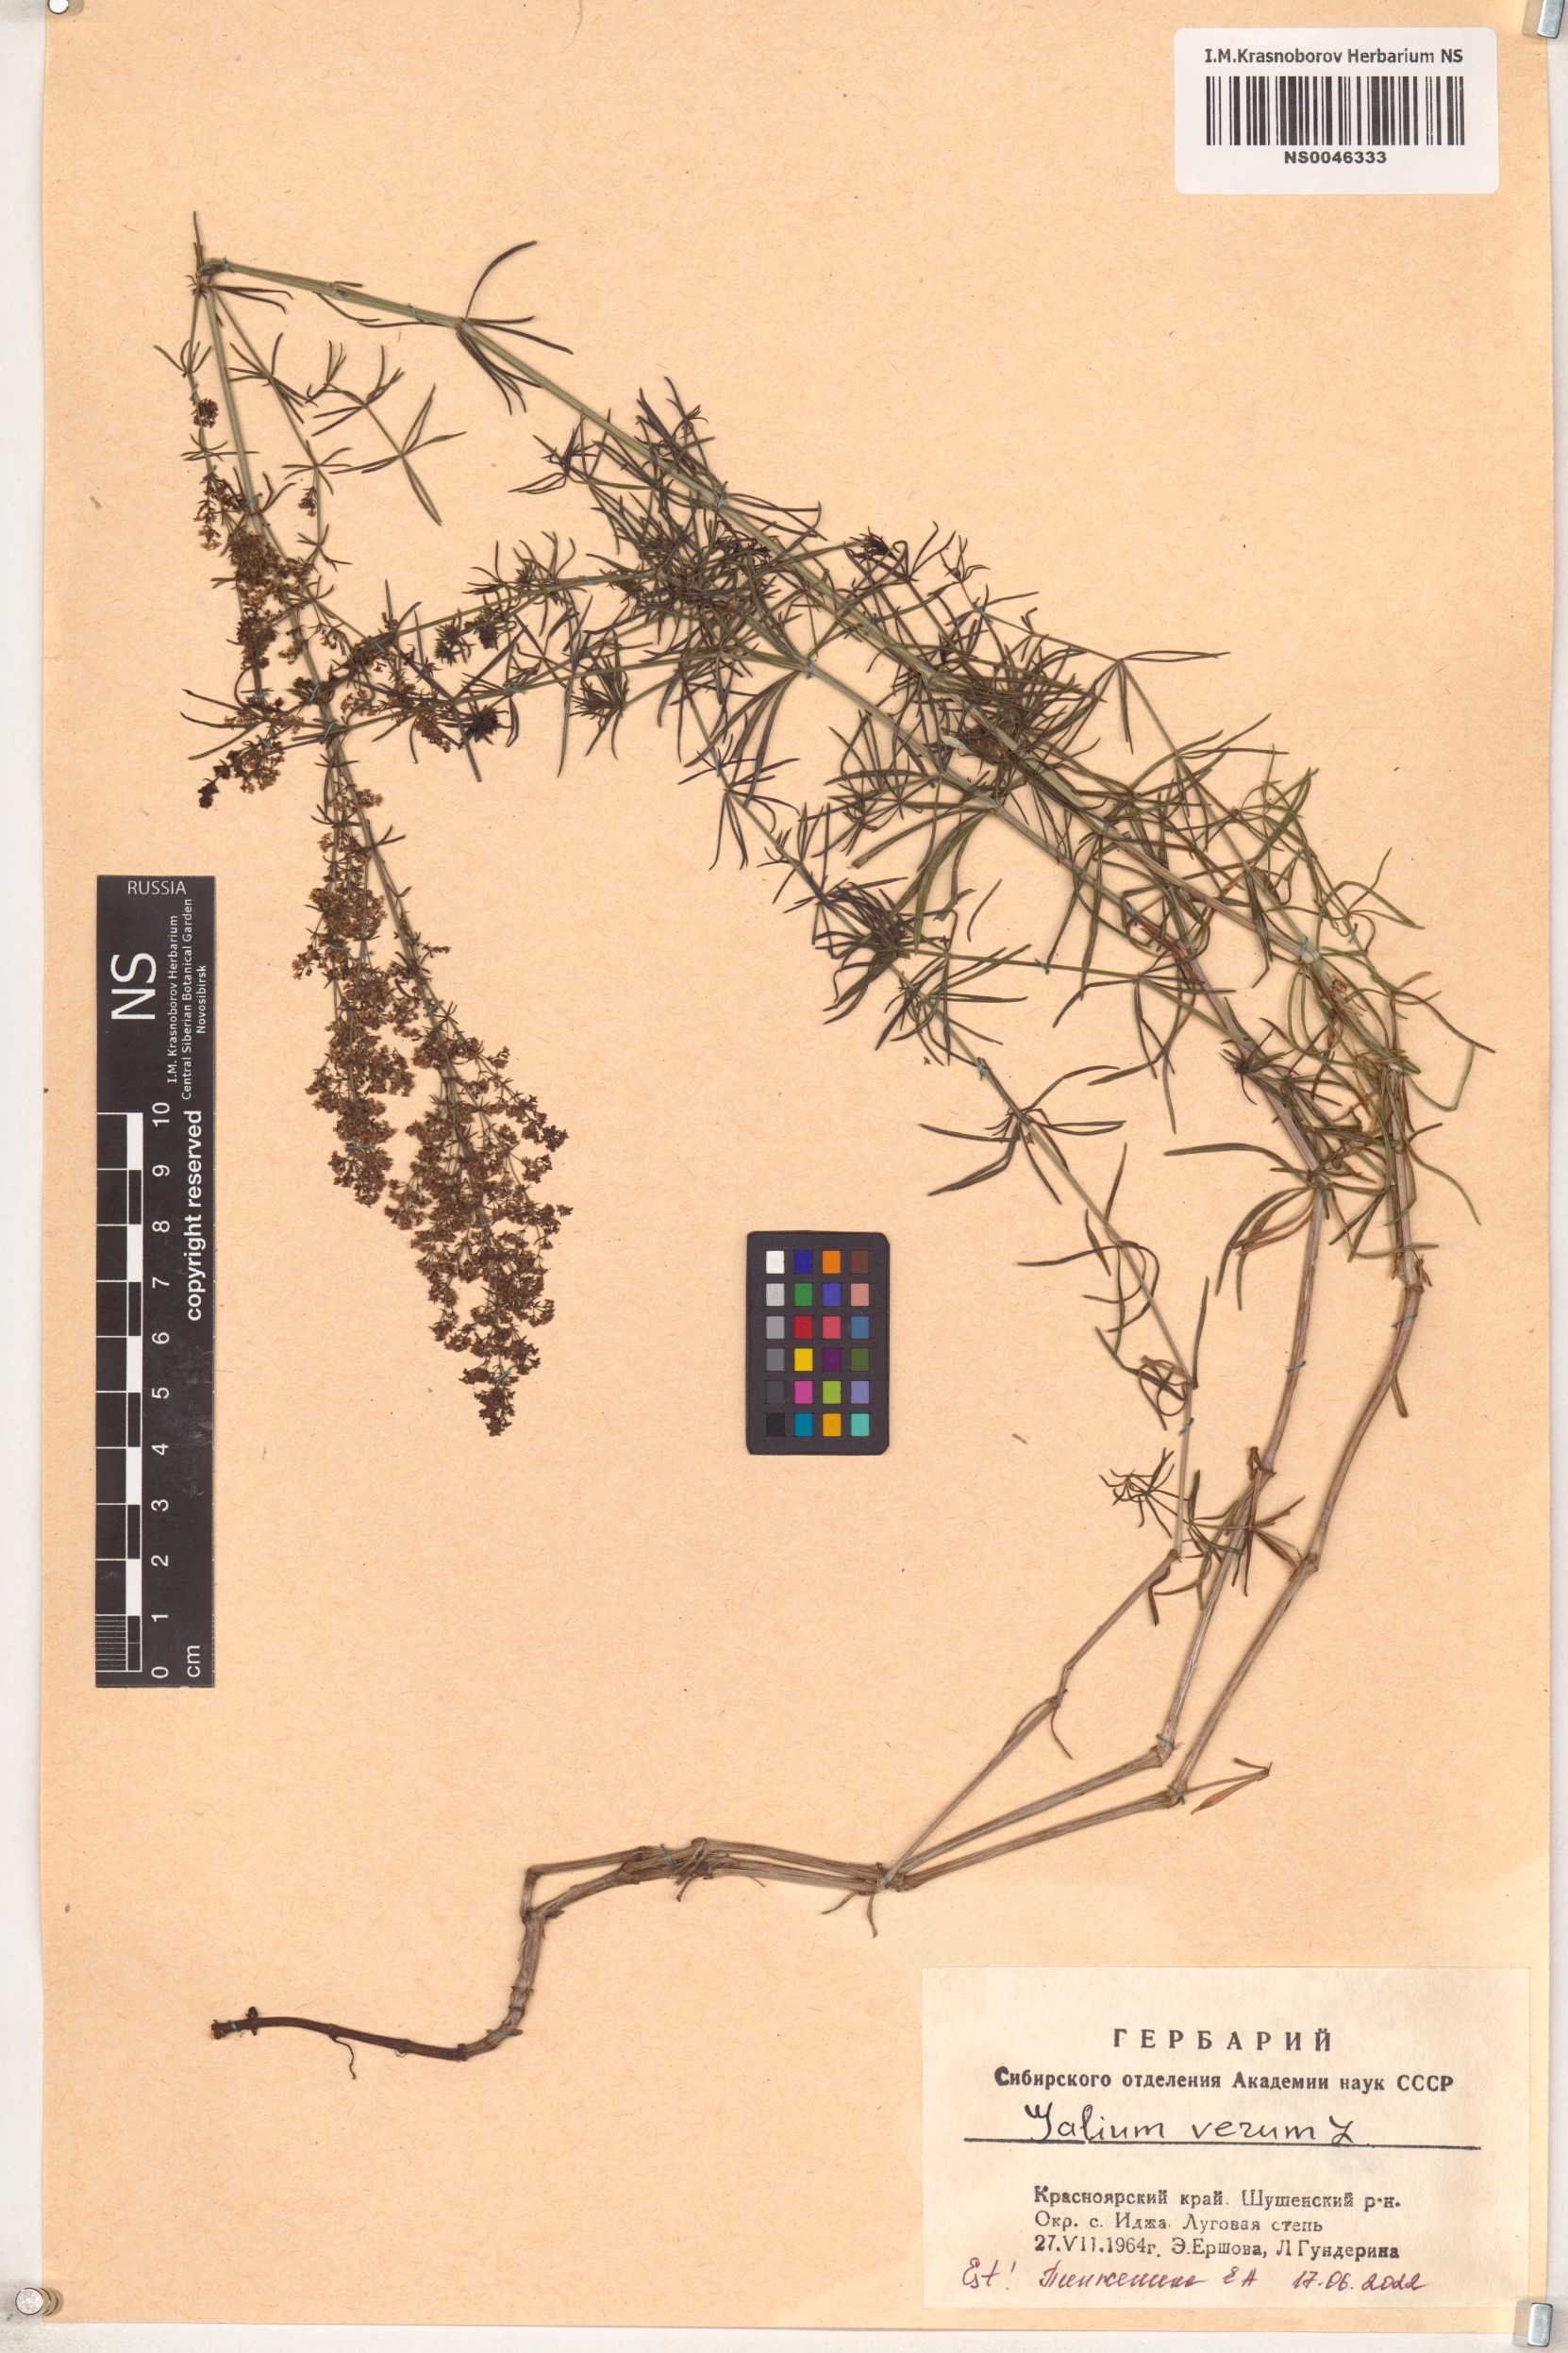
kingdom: Plantae
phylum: Tracheophyta
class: Magnoliopsida
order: Gentianales
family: Rubiaceae
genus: Galium
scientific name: Galium verum
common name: Lady's bedstraw
